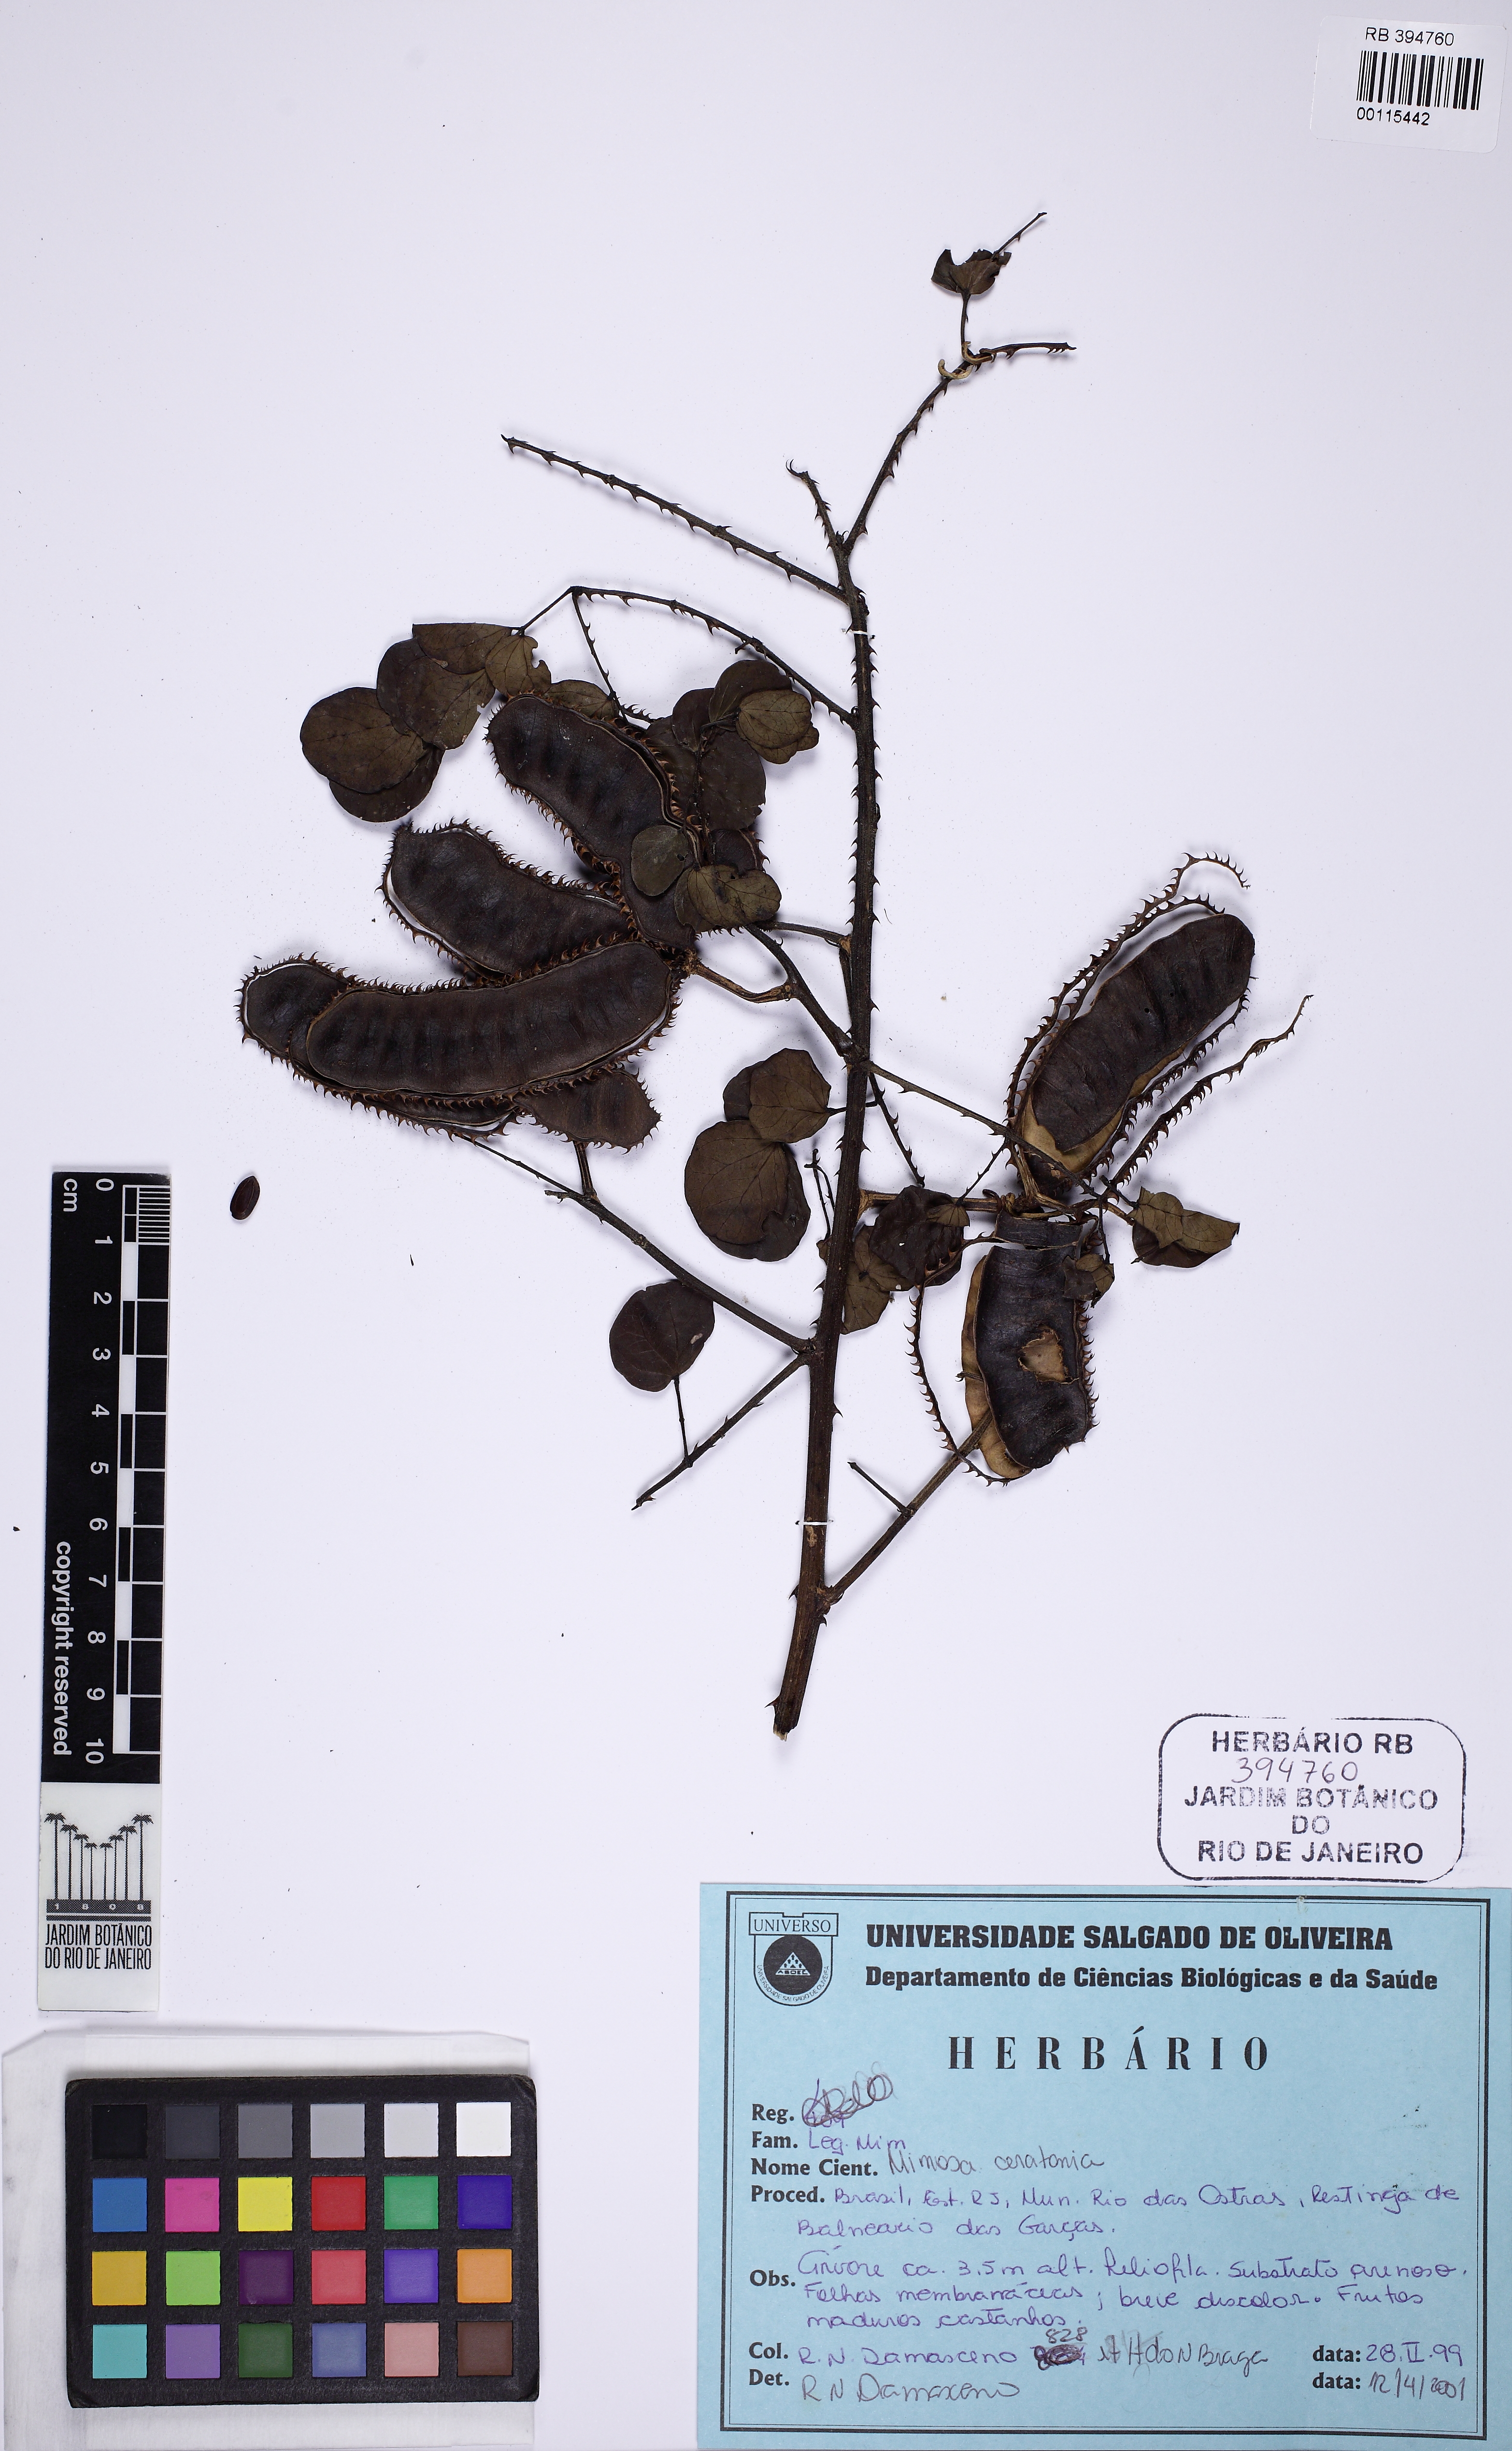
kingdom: Plantae
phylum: Tracheophyta
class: Magnoliopsida
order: Fabales
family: Fabaceae
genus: Mimosa
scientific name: Mimosa ceratonia
